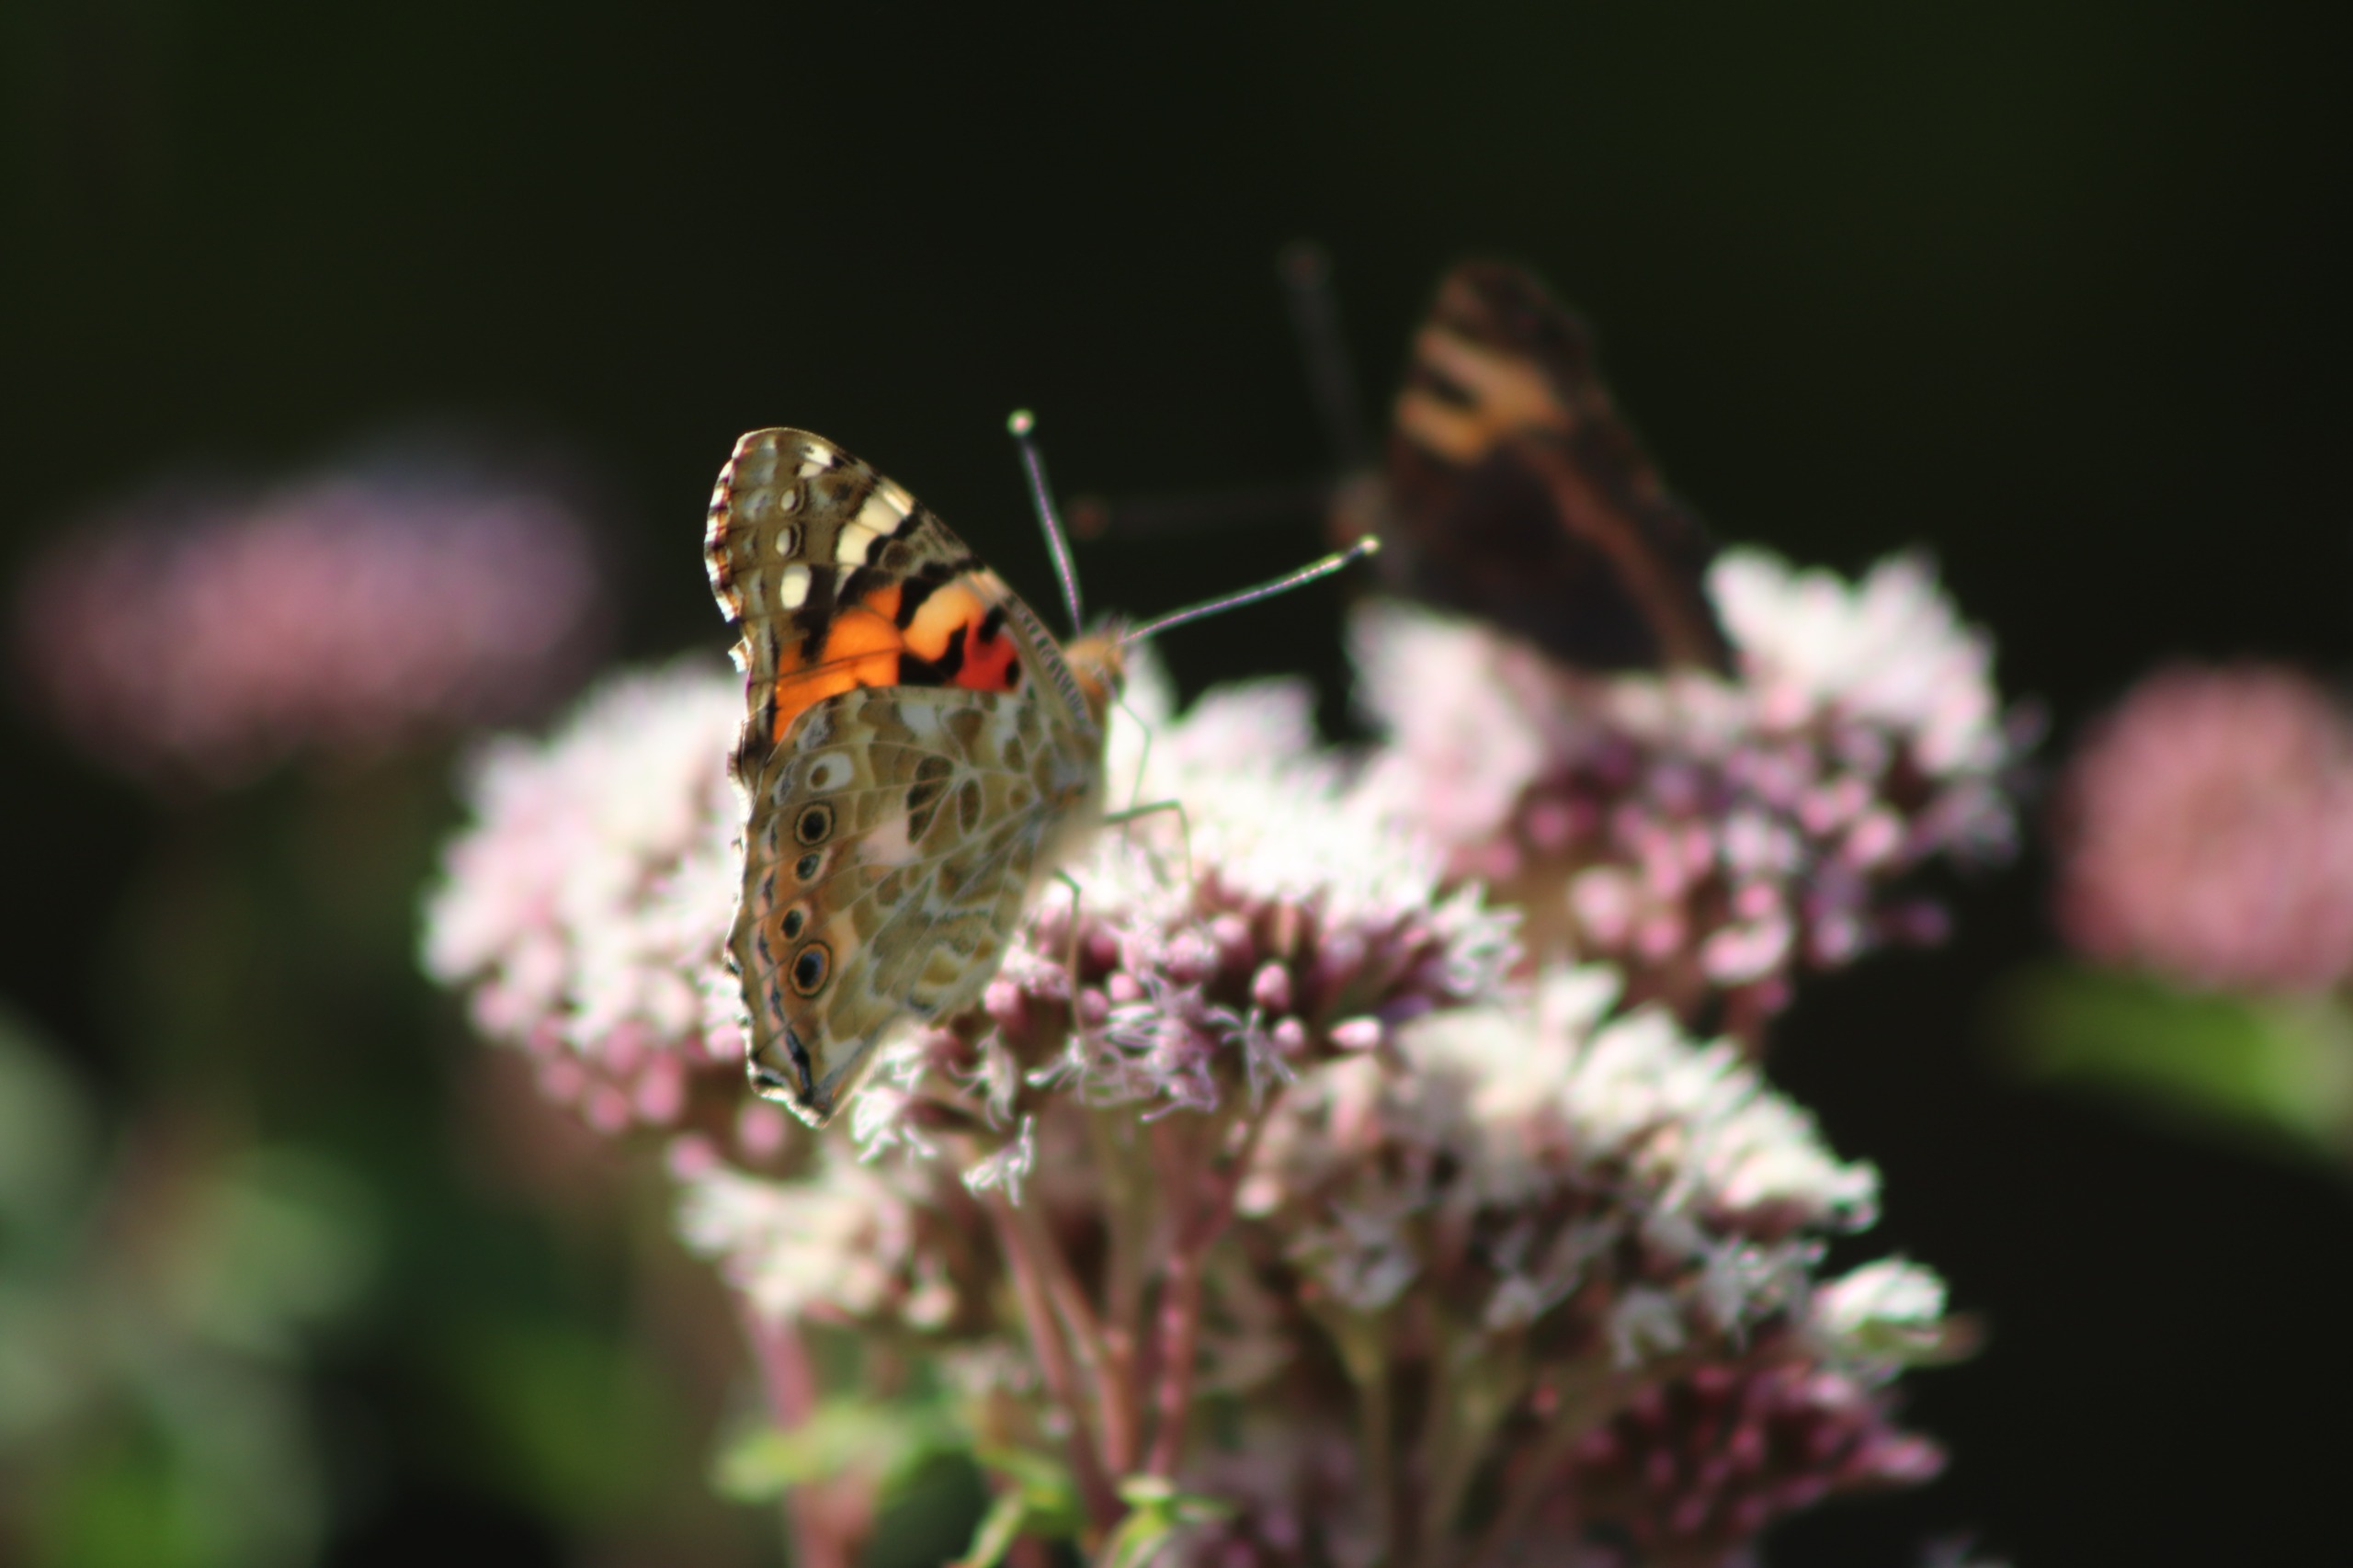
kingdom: Animalia
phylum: Arthropoda
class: Insecta
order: Lepidoptera
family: Nymphalidae
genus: Vanessa
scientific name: Vanessa cardui
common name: Tidselsommerfugl
